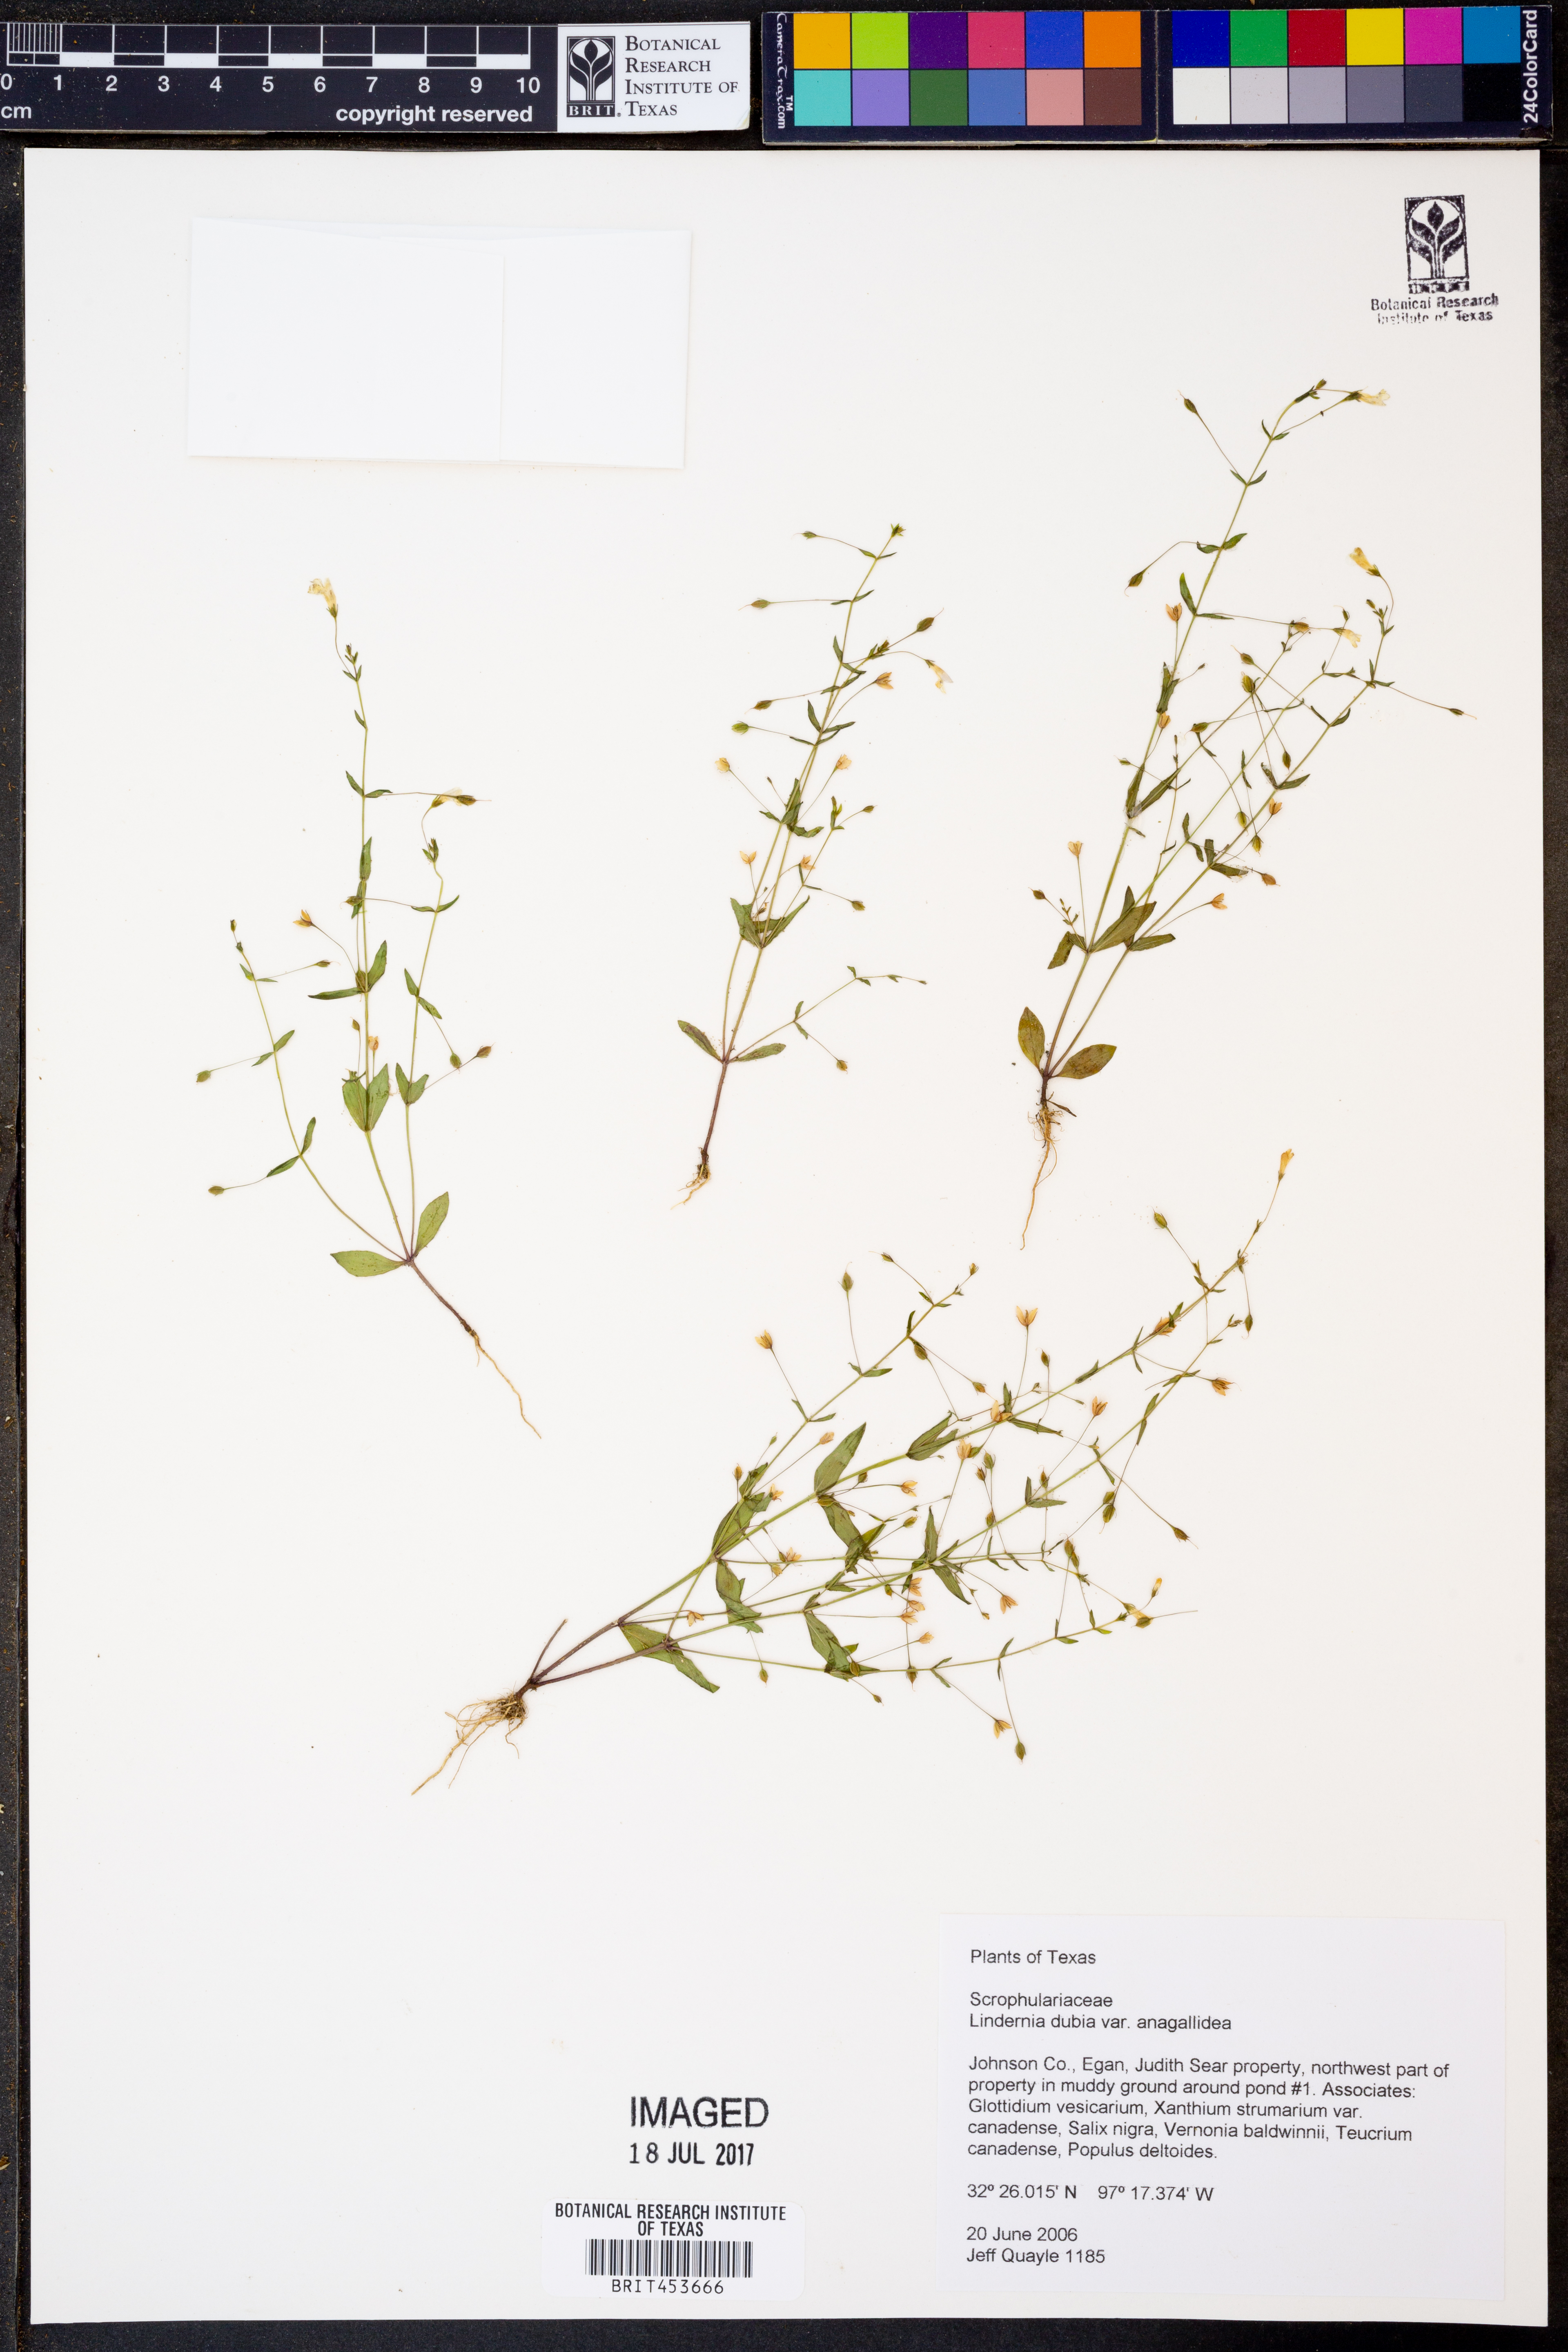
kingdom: Plantae
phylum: Tracheophyta
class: Magnoliopsida
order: Lamiales
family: Linderniaceae
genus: Lindernia
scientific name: Lindernia dubia
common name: Annual false pimpernel
